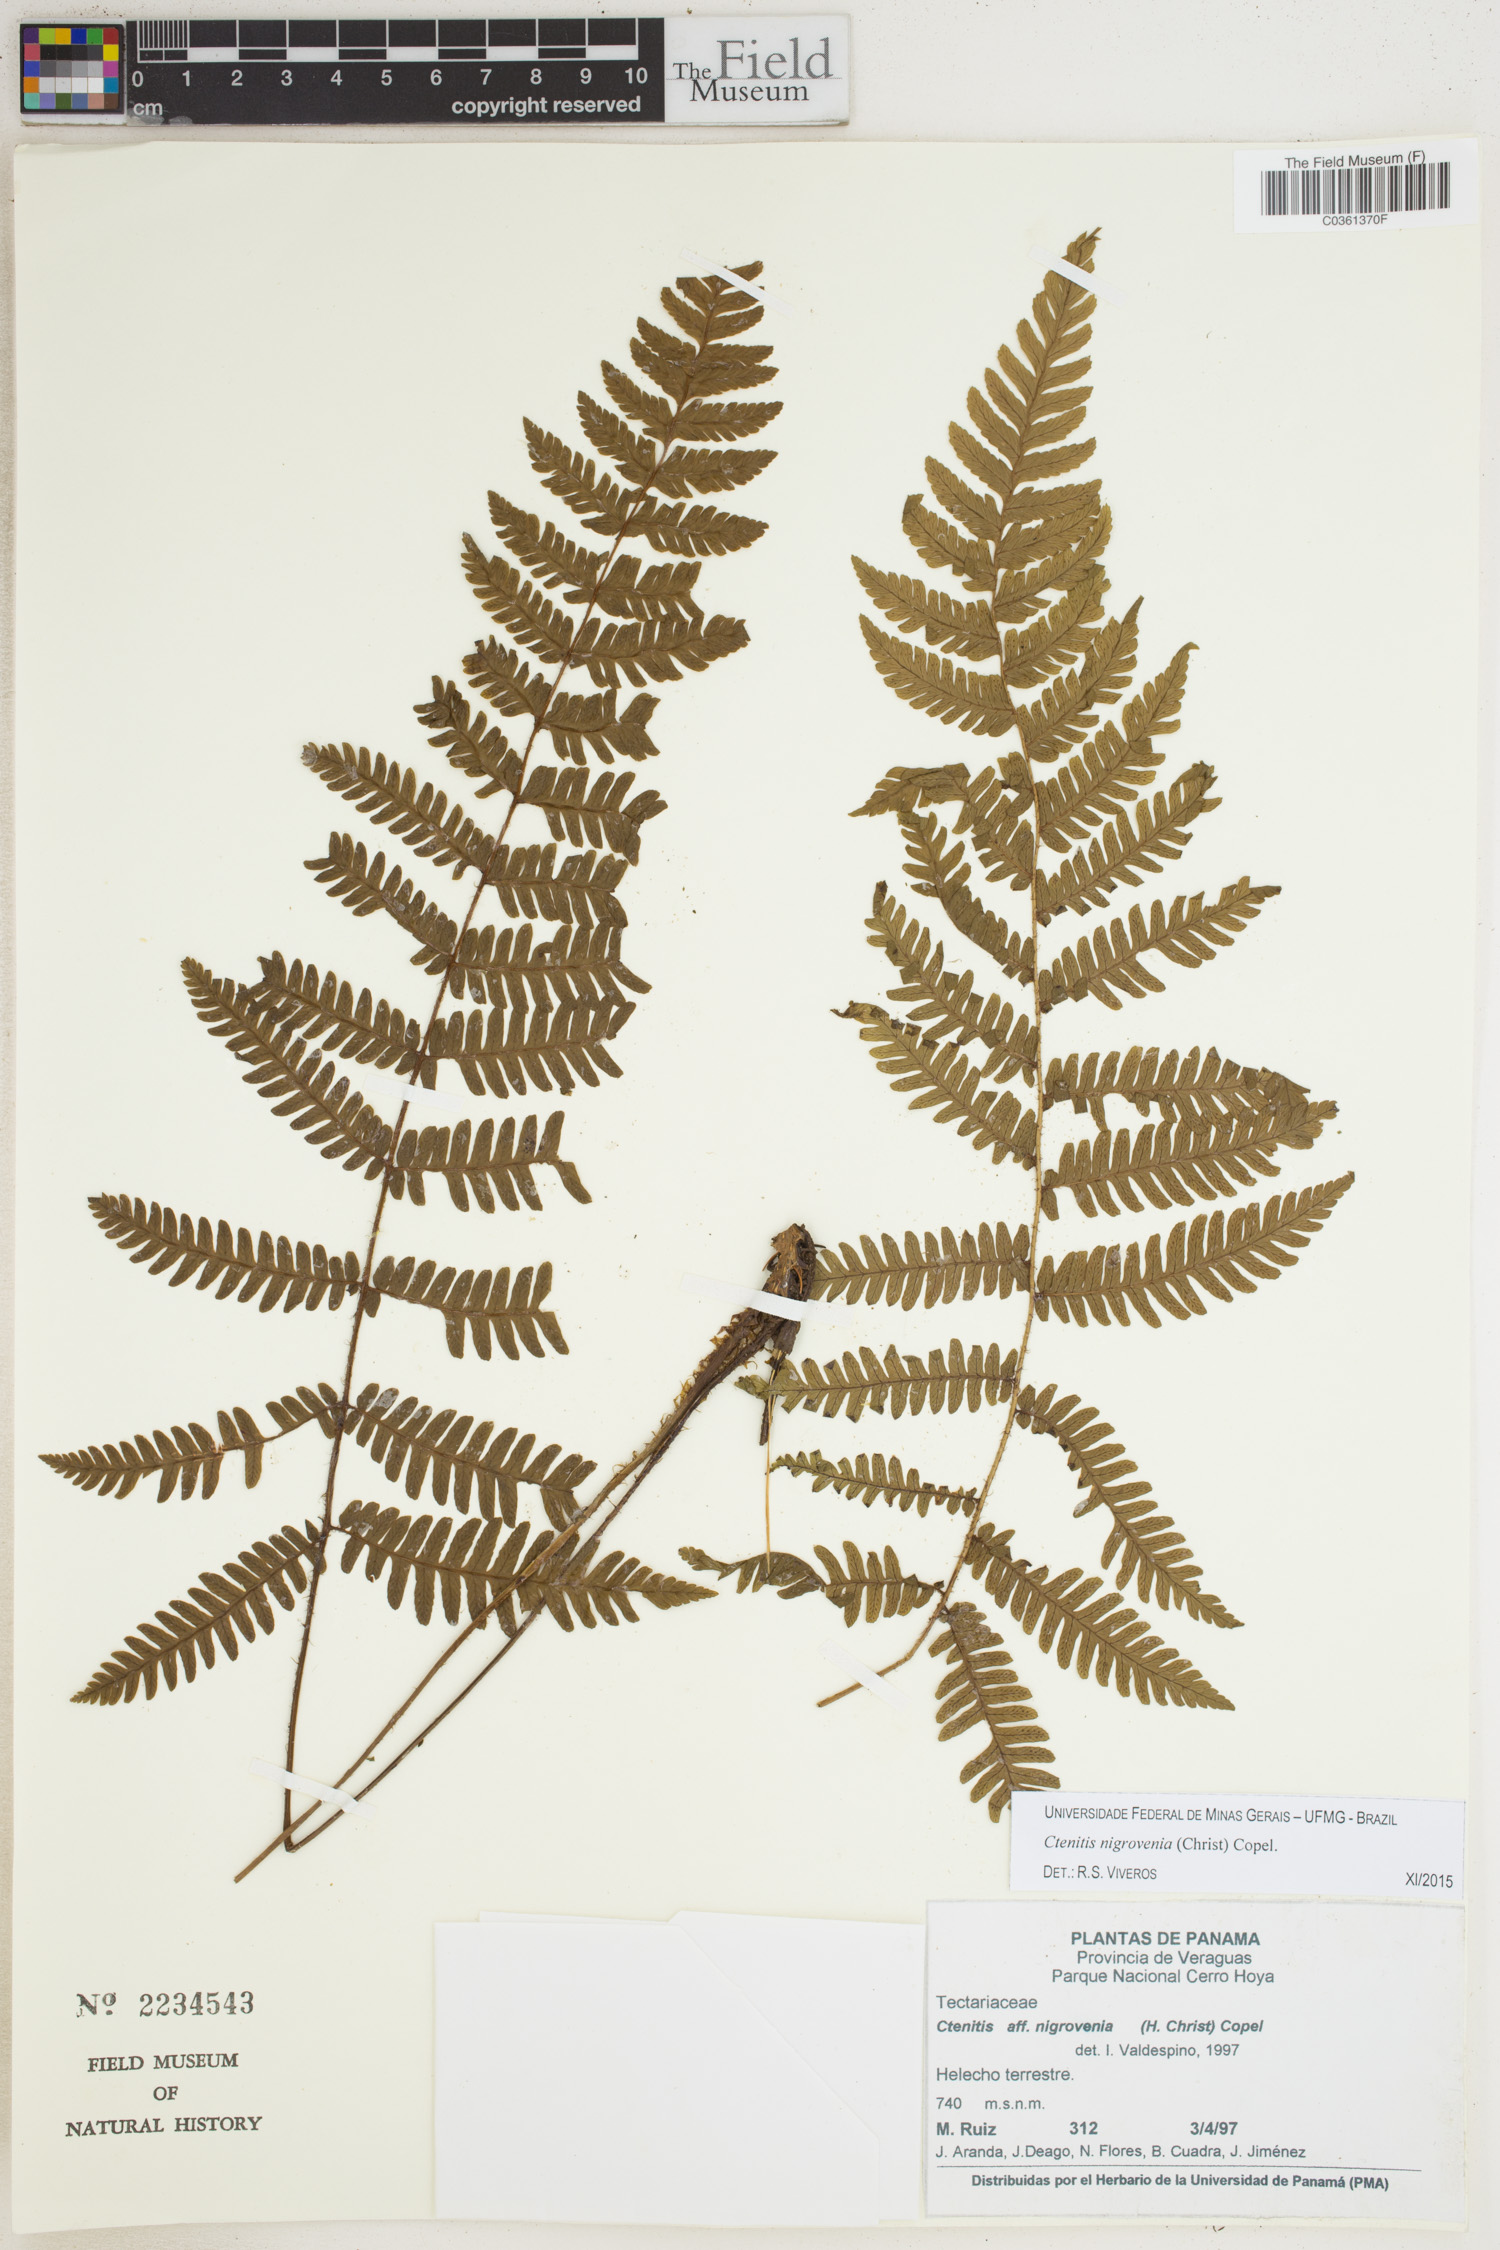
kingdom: Plantae
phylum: Tracheophyta
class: Polypodiopsida
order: Polypodiales
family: Dryopteridaceae
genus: Ctenitis
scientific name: Ctenitis nigrovenia
